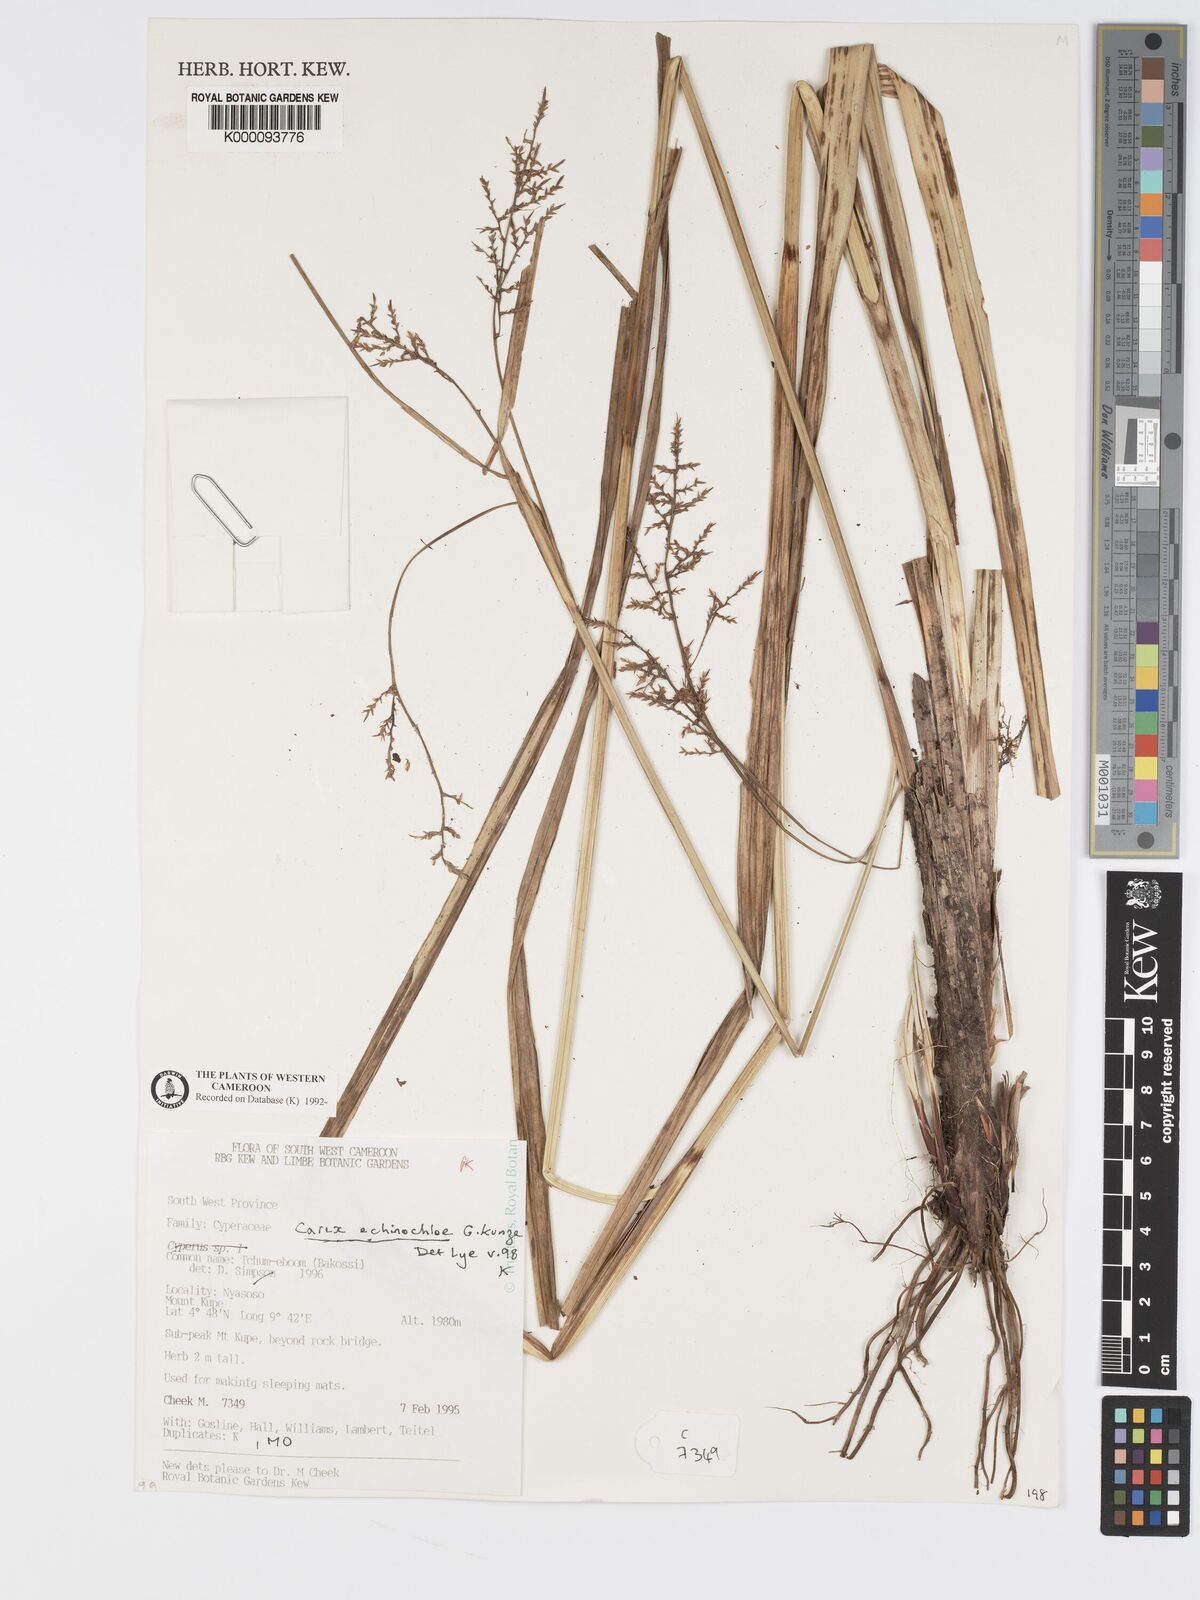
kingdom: Plantae
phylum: Tracheophyta
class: Liliopsida
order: Poales
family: Cyperaceae
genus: Carex
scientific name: Carex
